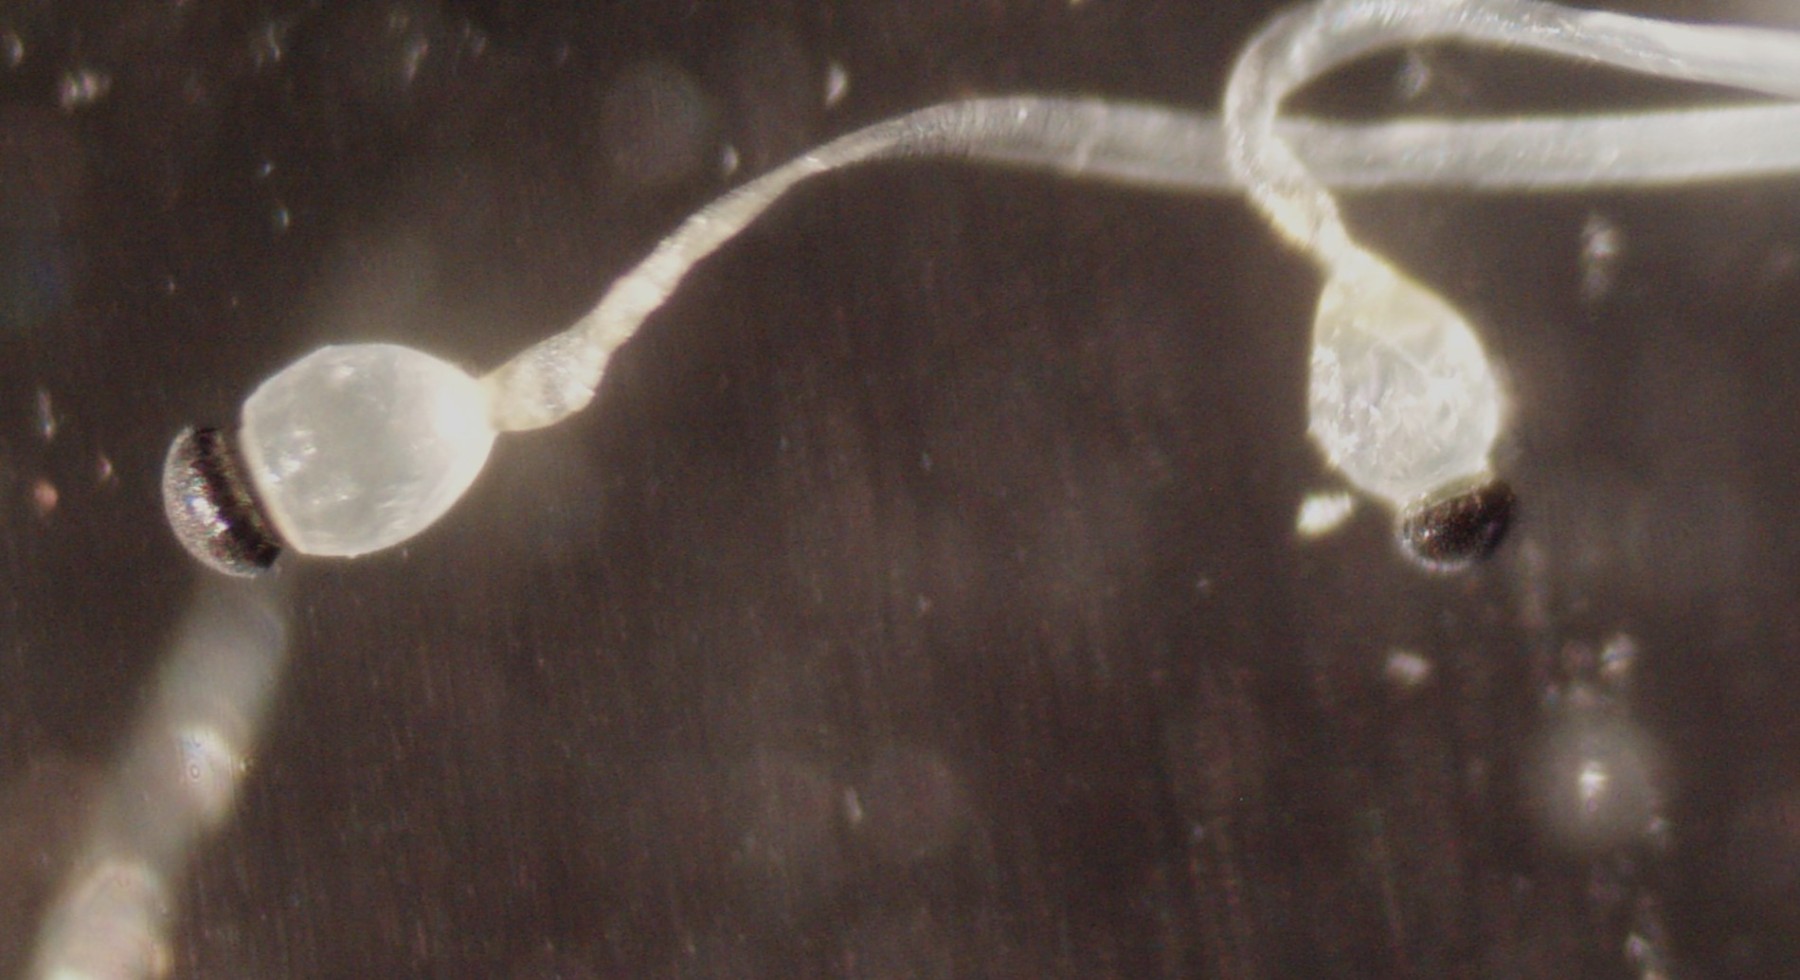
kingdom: Fungi
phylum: Mucoromycota
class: Mucoromycetes
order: Mucorales
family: Pilobolaceae
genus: Pilobolus
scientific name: Pilobolus
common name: boldkaster
